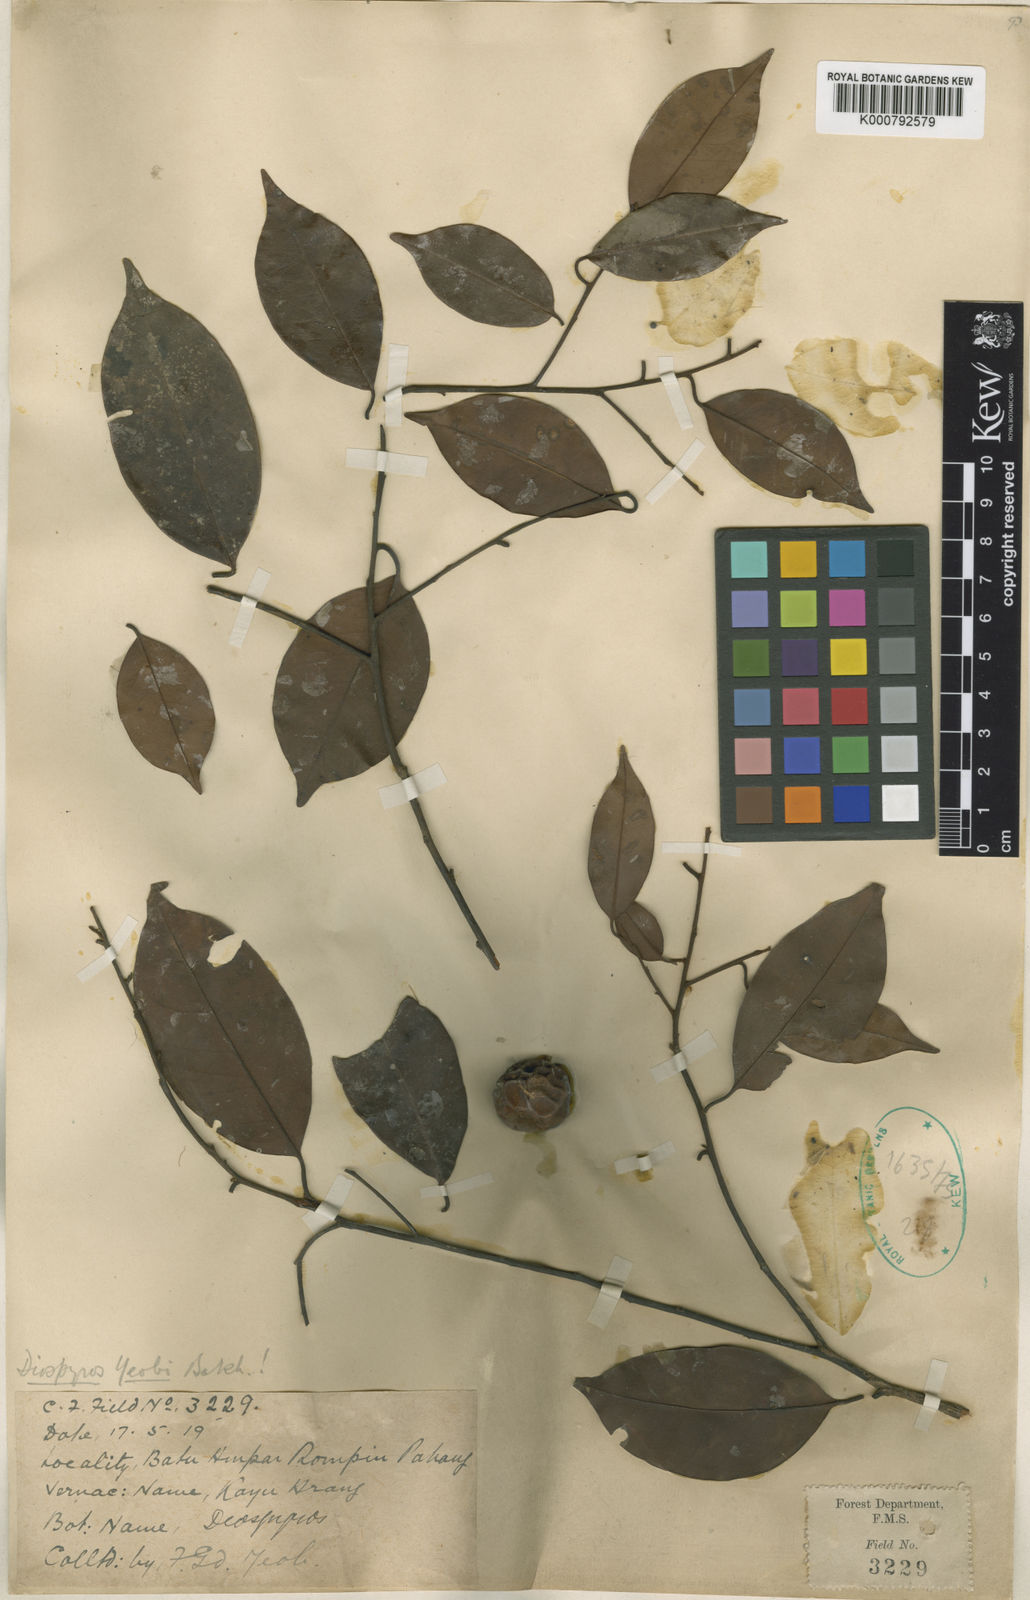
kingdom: Plantae
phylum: Tracheophyta
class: Magnoliopsida
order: Ericales
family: Ebenaceae
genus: Diospyros
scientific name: Diospyros yeobii
